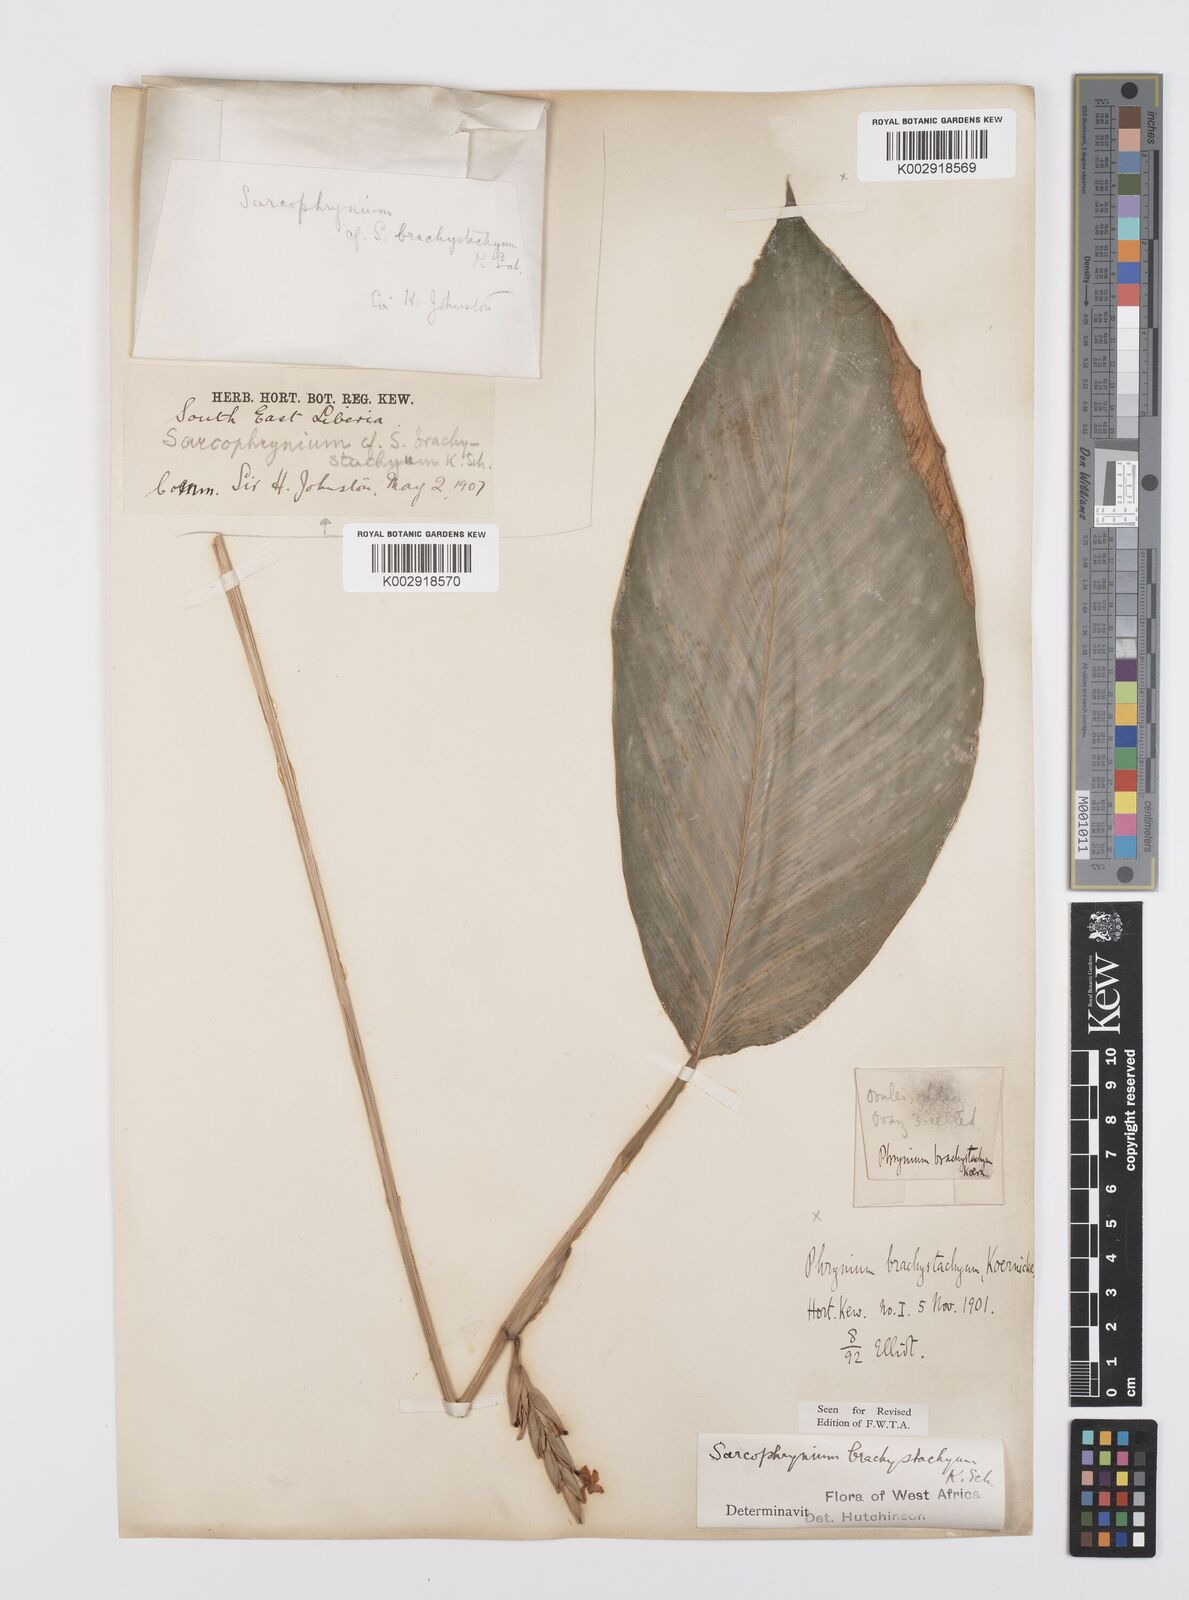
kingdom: Plantae
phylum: Tracheophyta
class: Liliopsida
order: Zingiberales
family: Marantaceae
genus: Sarcophrynium
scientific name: Sarcophrynium brachystachyum
